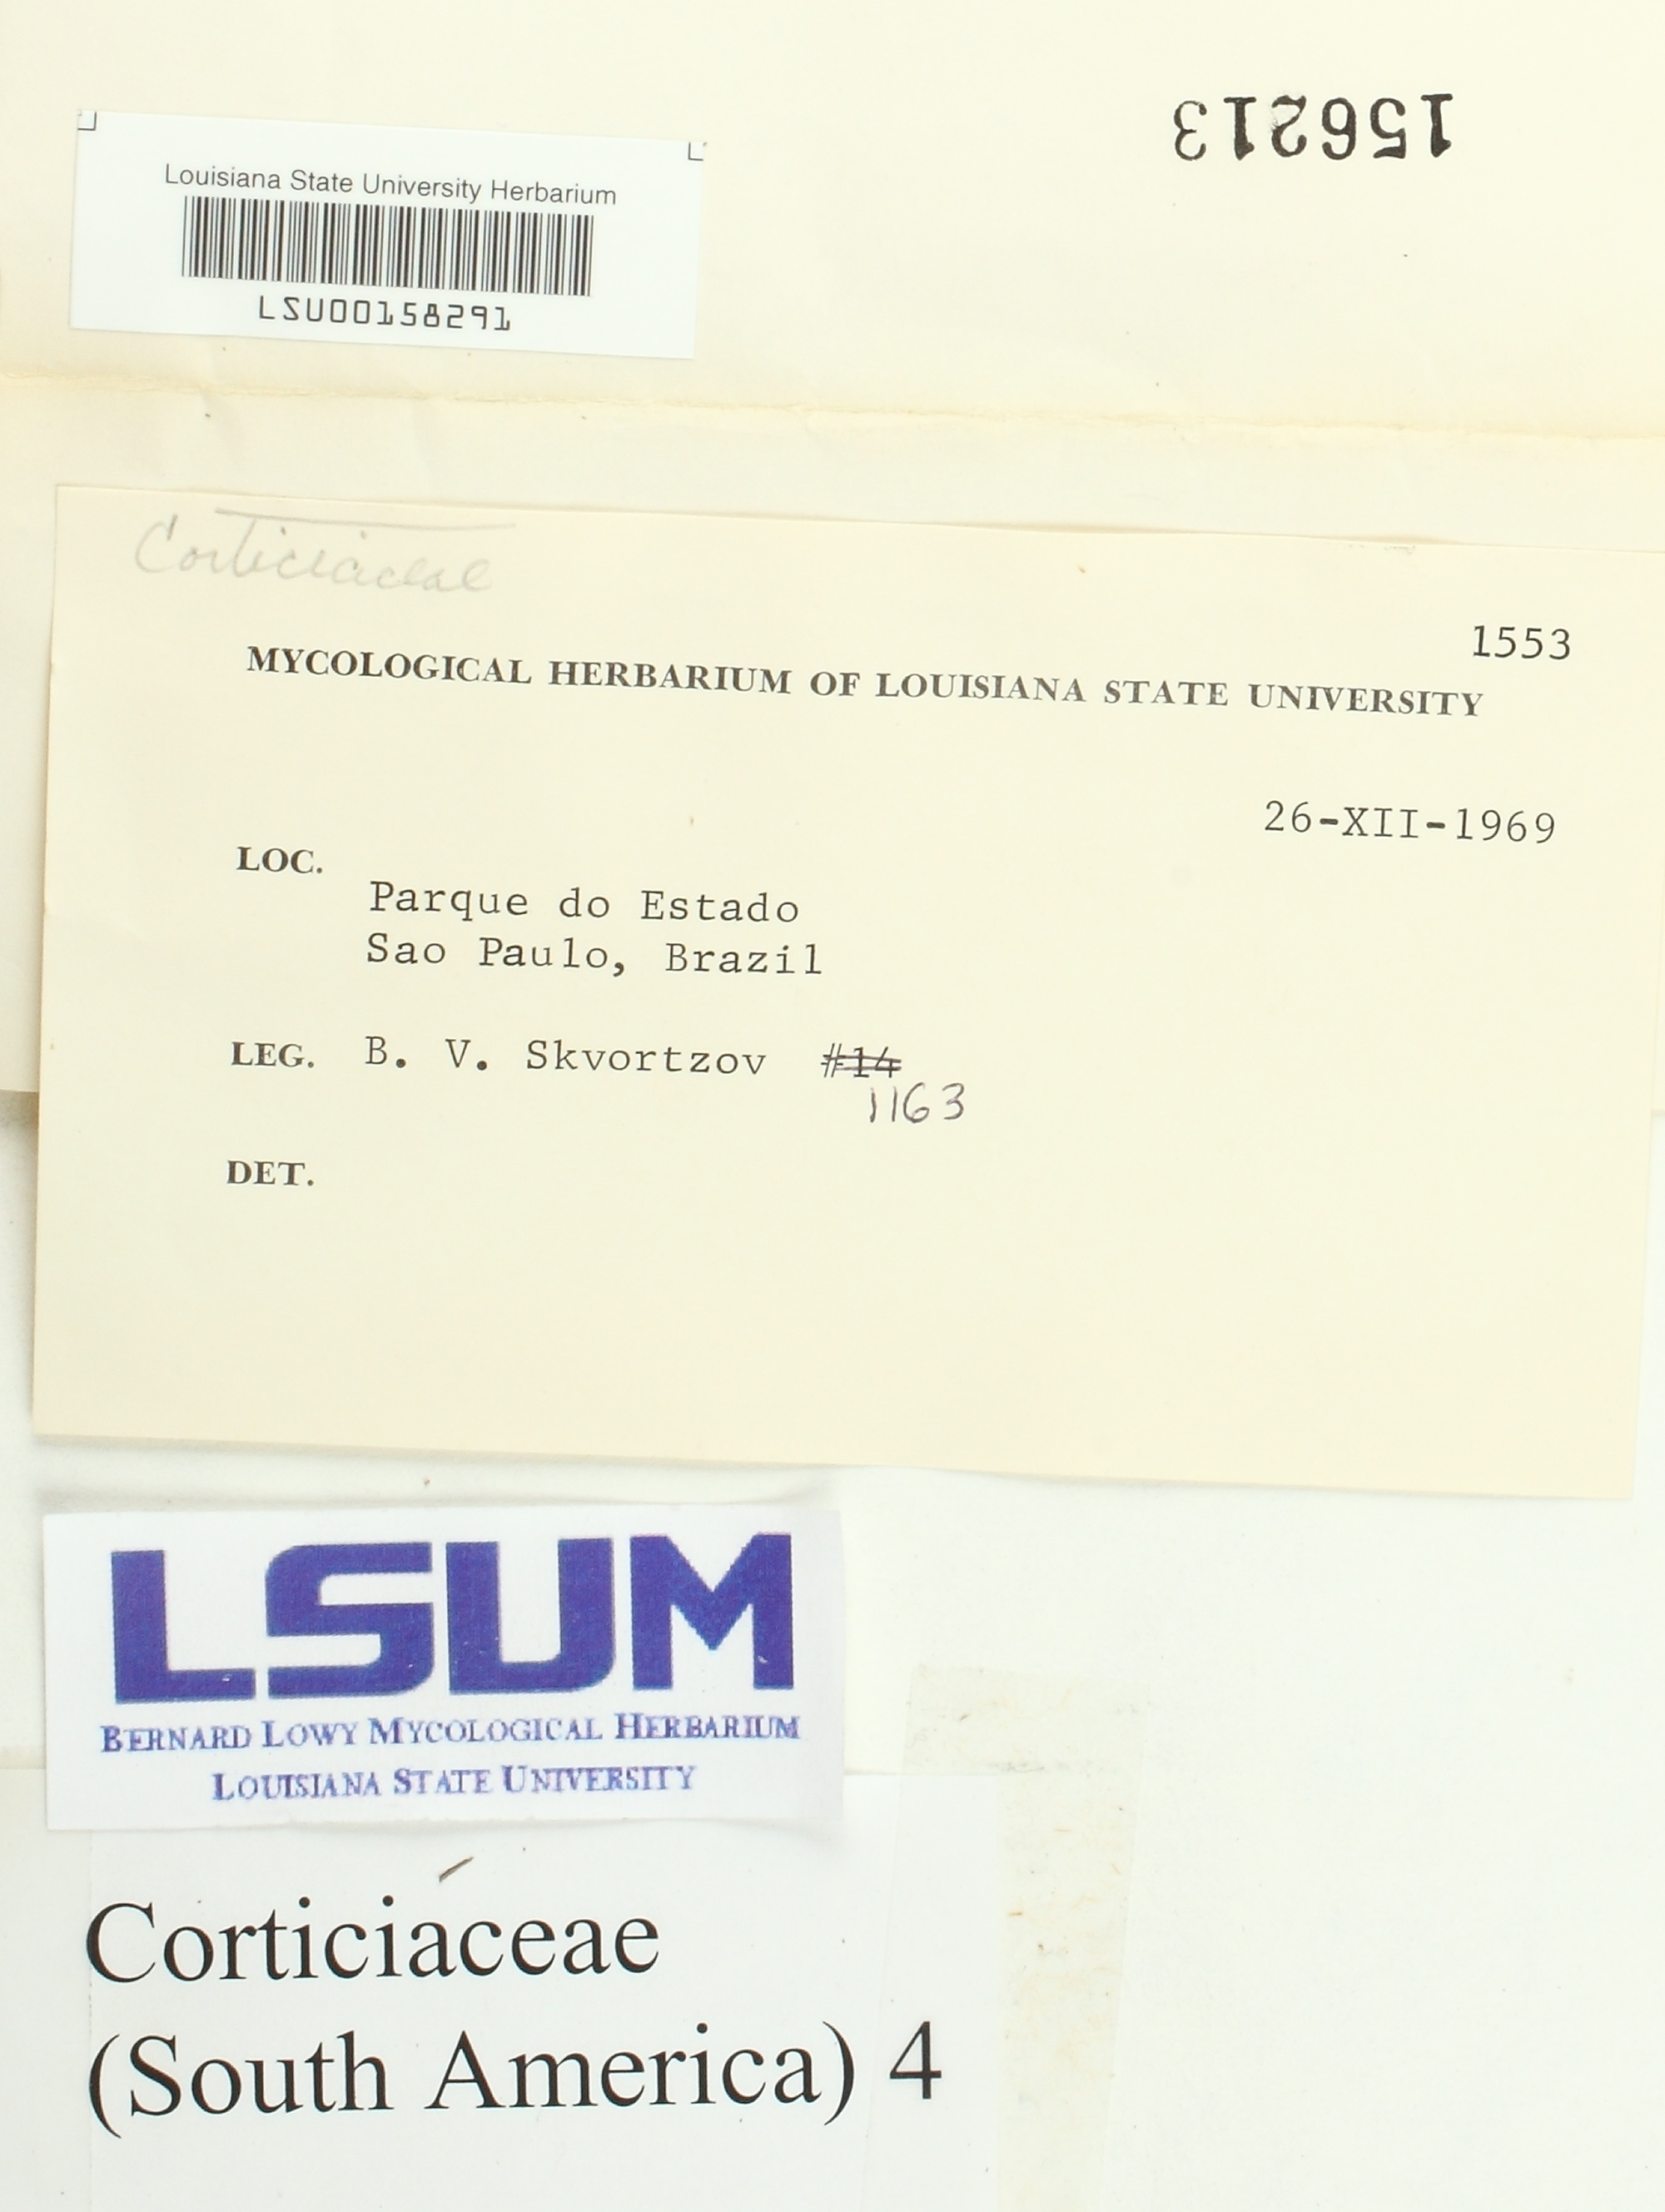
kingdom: Fungi
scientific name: Fungi
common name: Fungi
